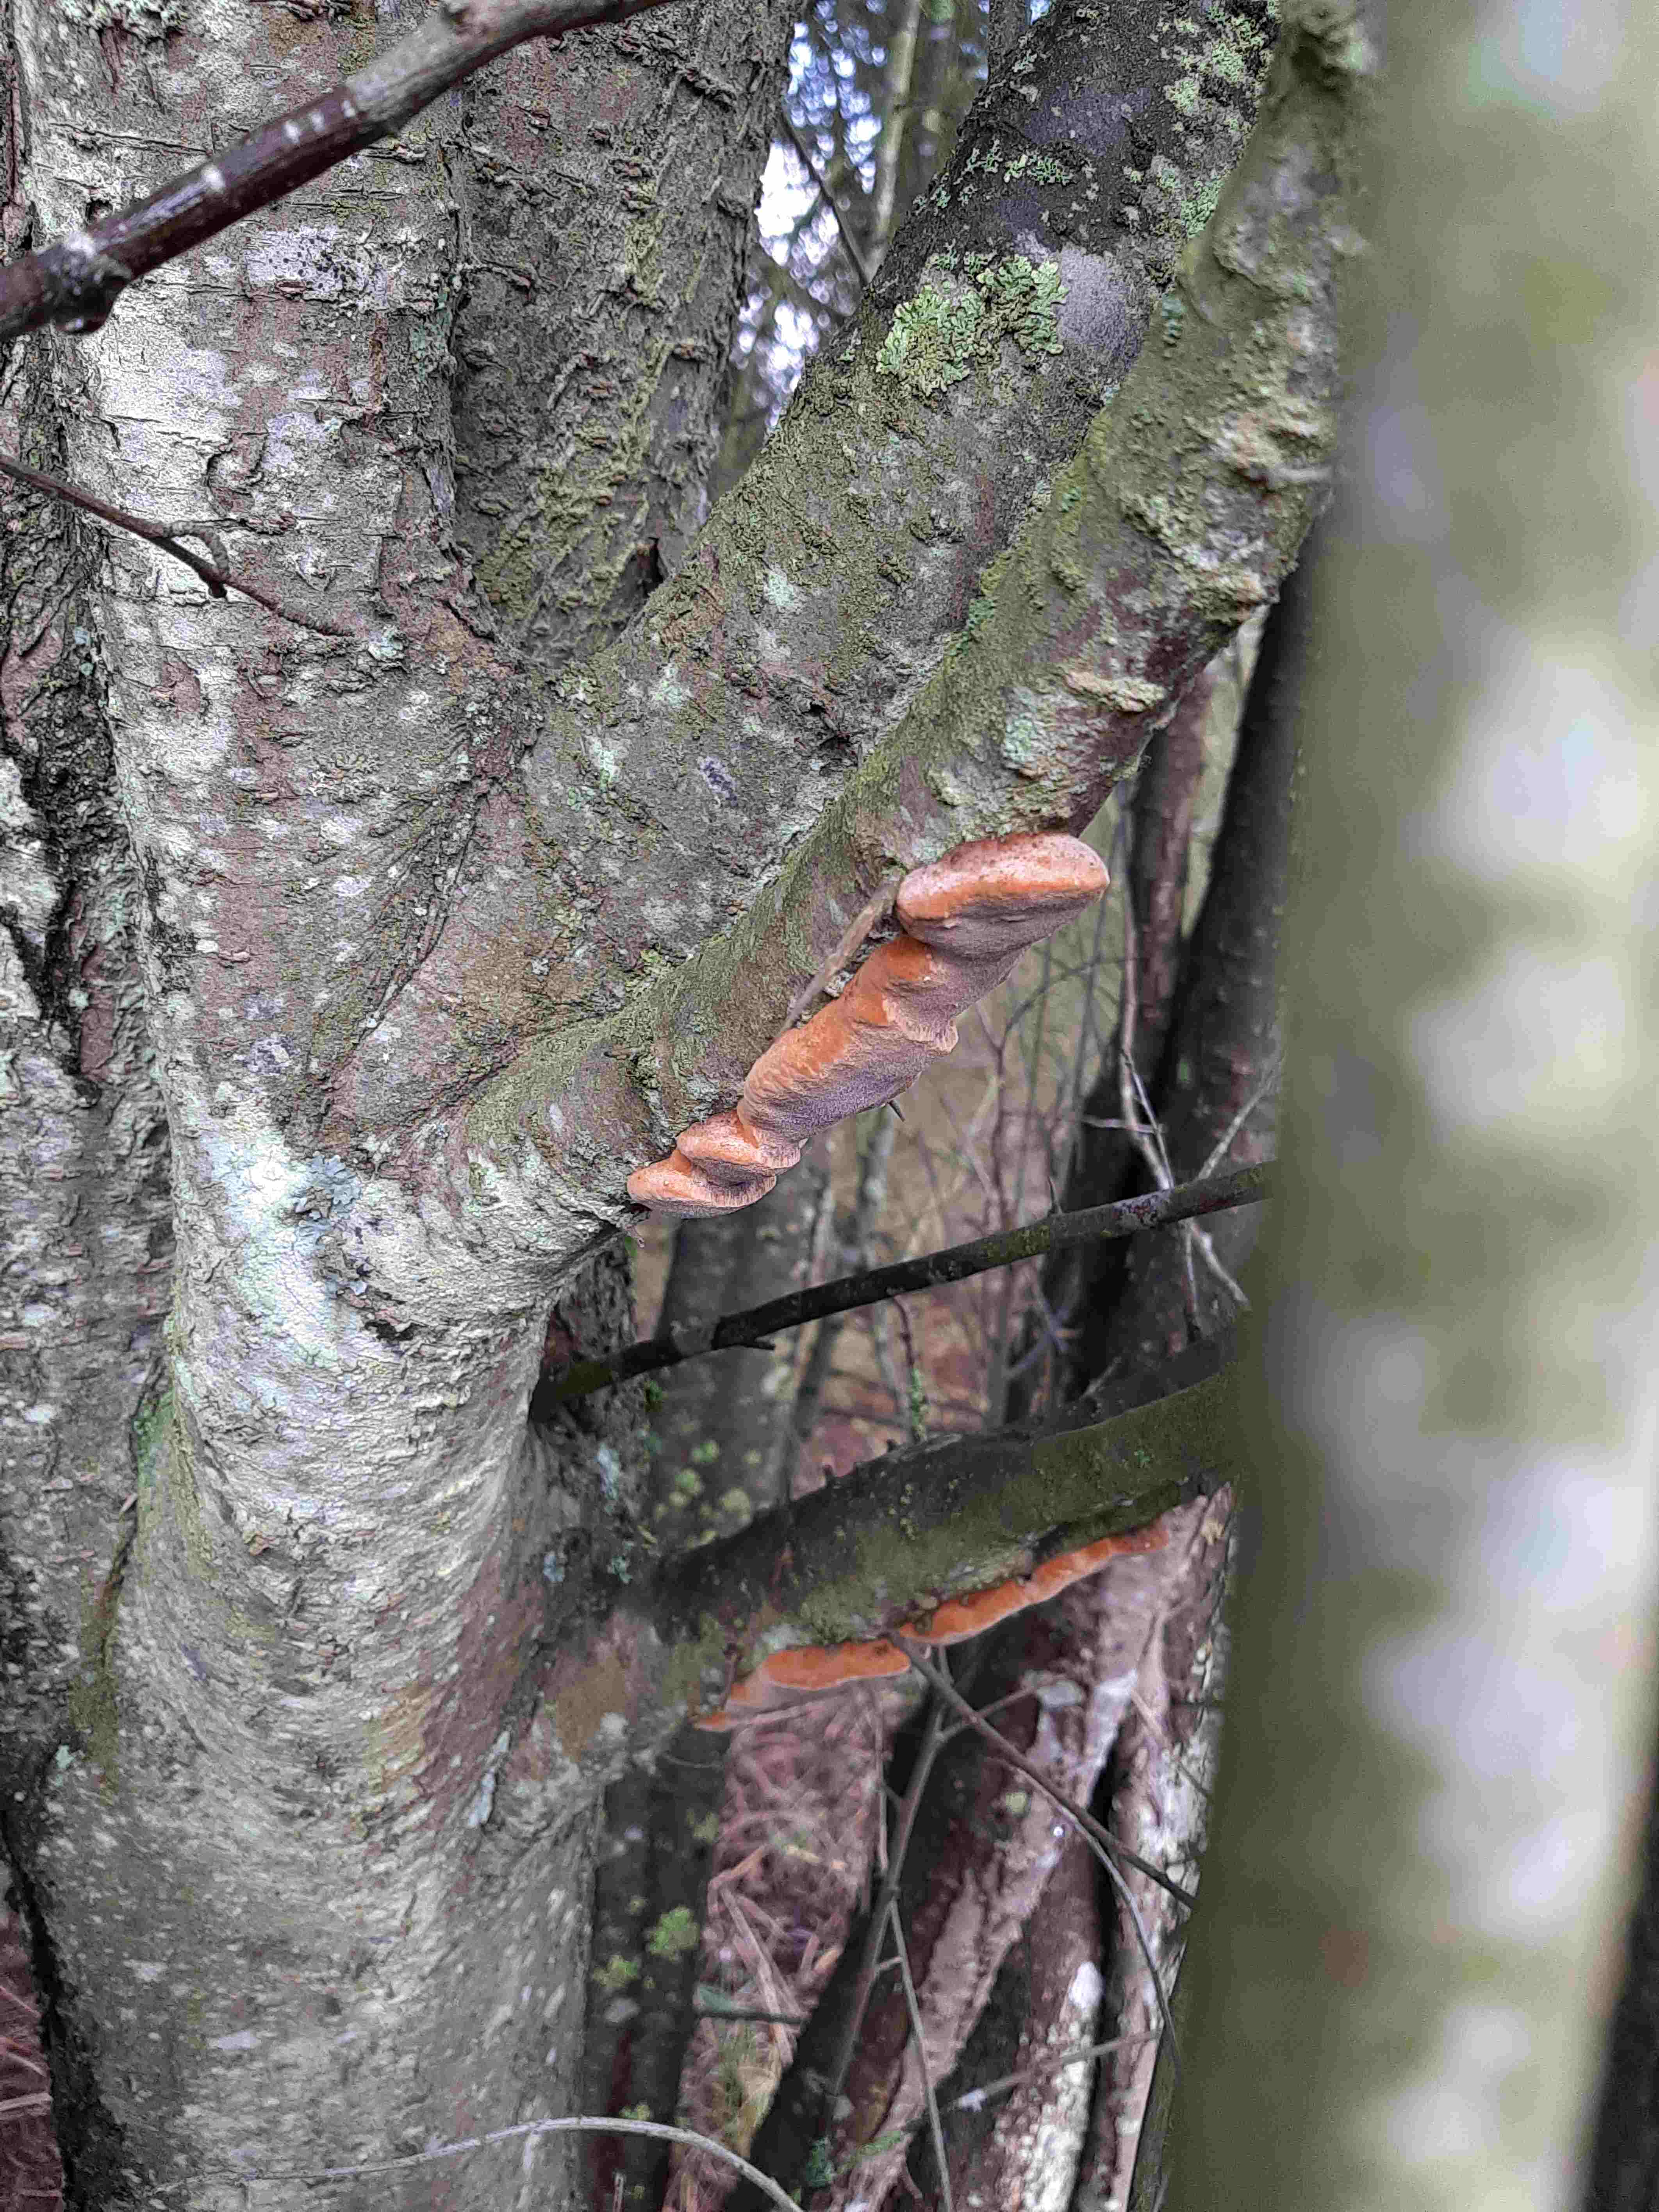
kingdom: Fungi
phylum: Basidiomycota
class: Agaricomycetes
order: Hymenochaetales
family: Hymenochaetaceae
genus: Phellinus
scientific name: Phellinus pomaceus
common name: blomme-ildporesvamp
